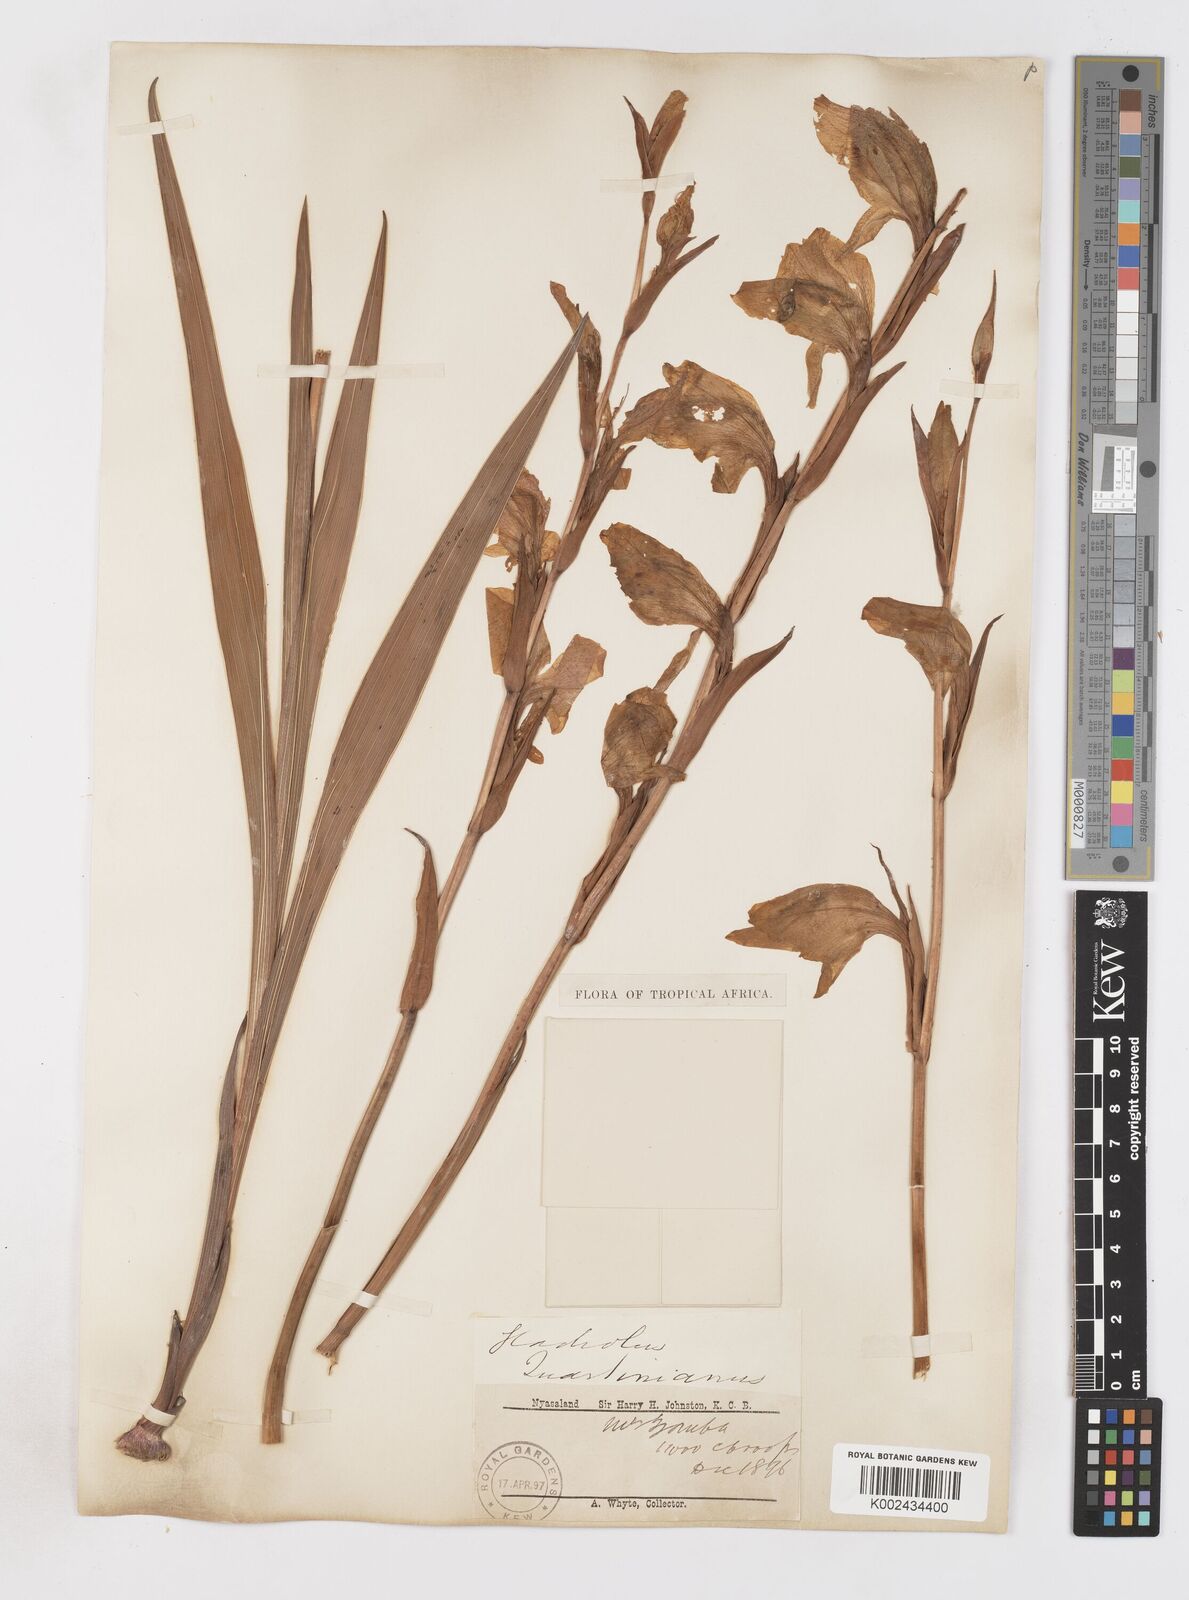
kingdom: Plantae
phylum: Tracheophyta
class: Liliopsida
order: Asparagales
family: Iridaceae
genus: Gladiolus
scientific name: Gladiolus dalenii
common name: Cornflag
